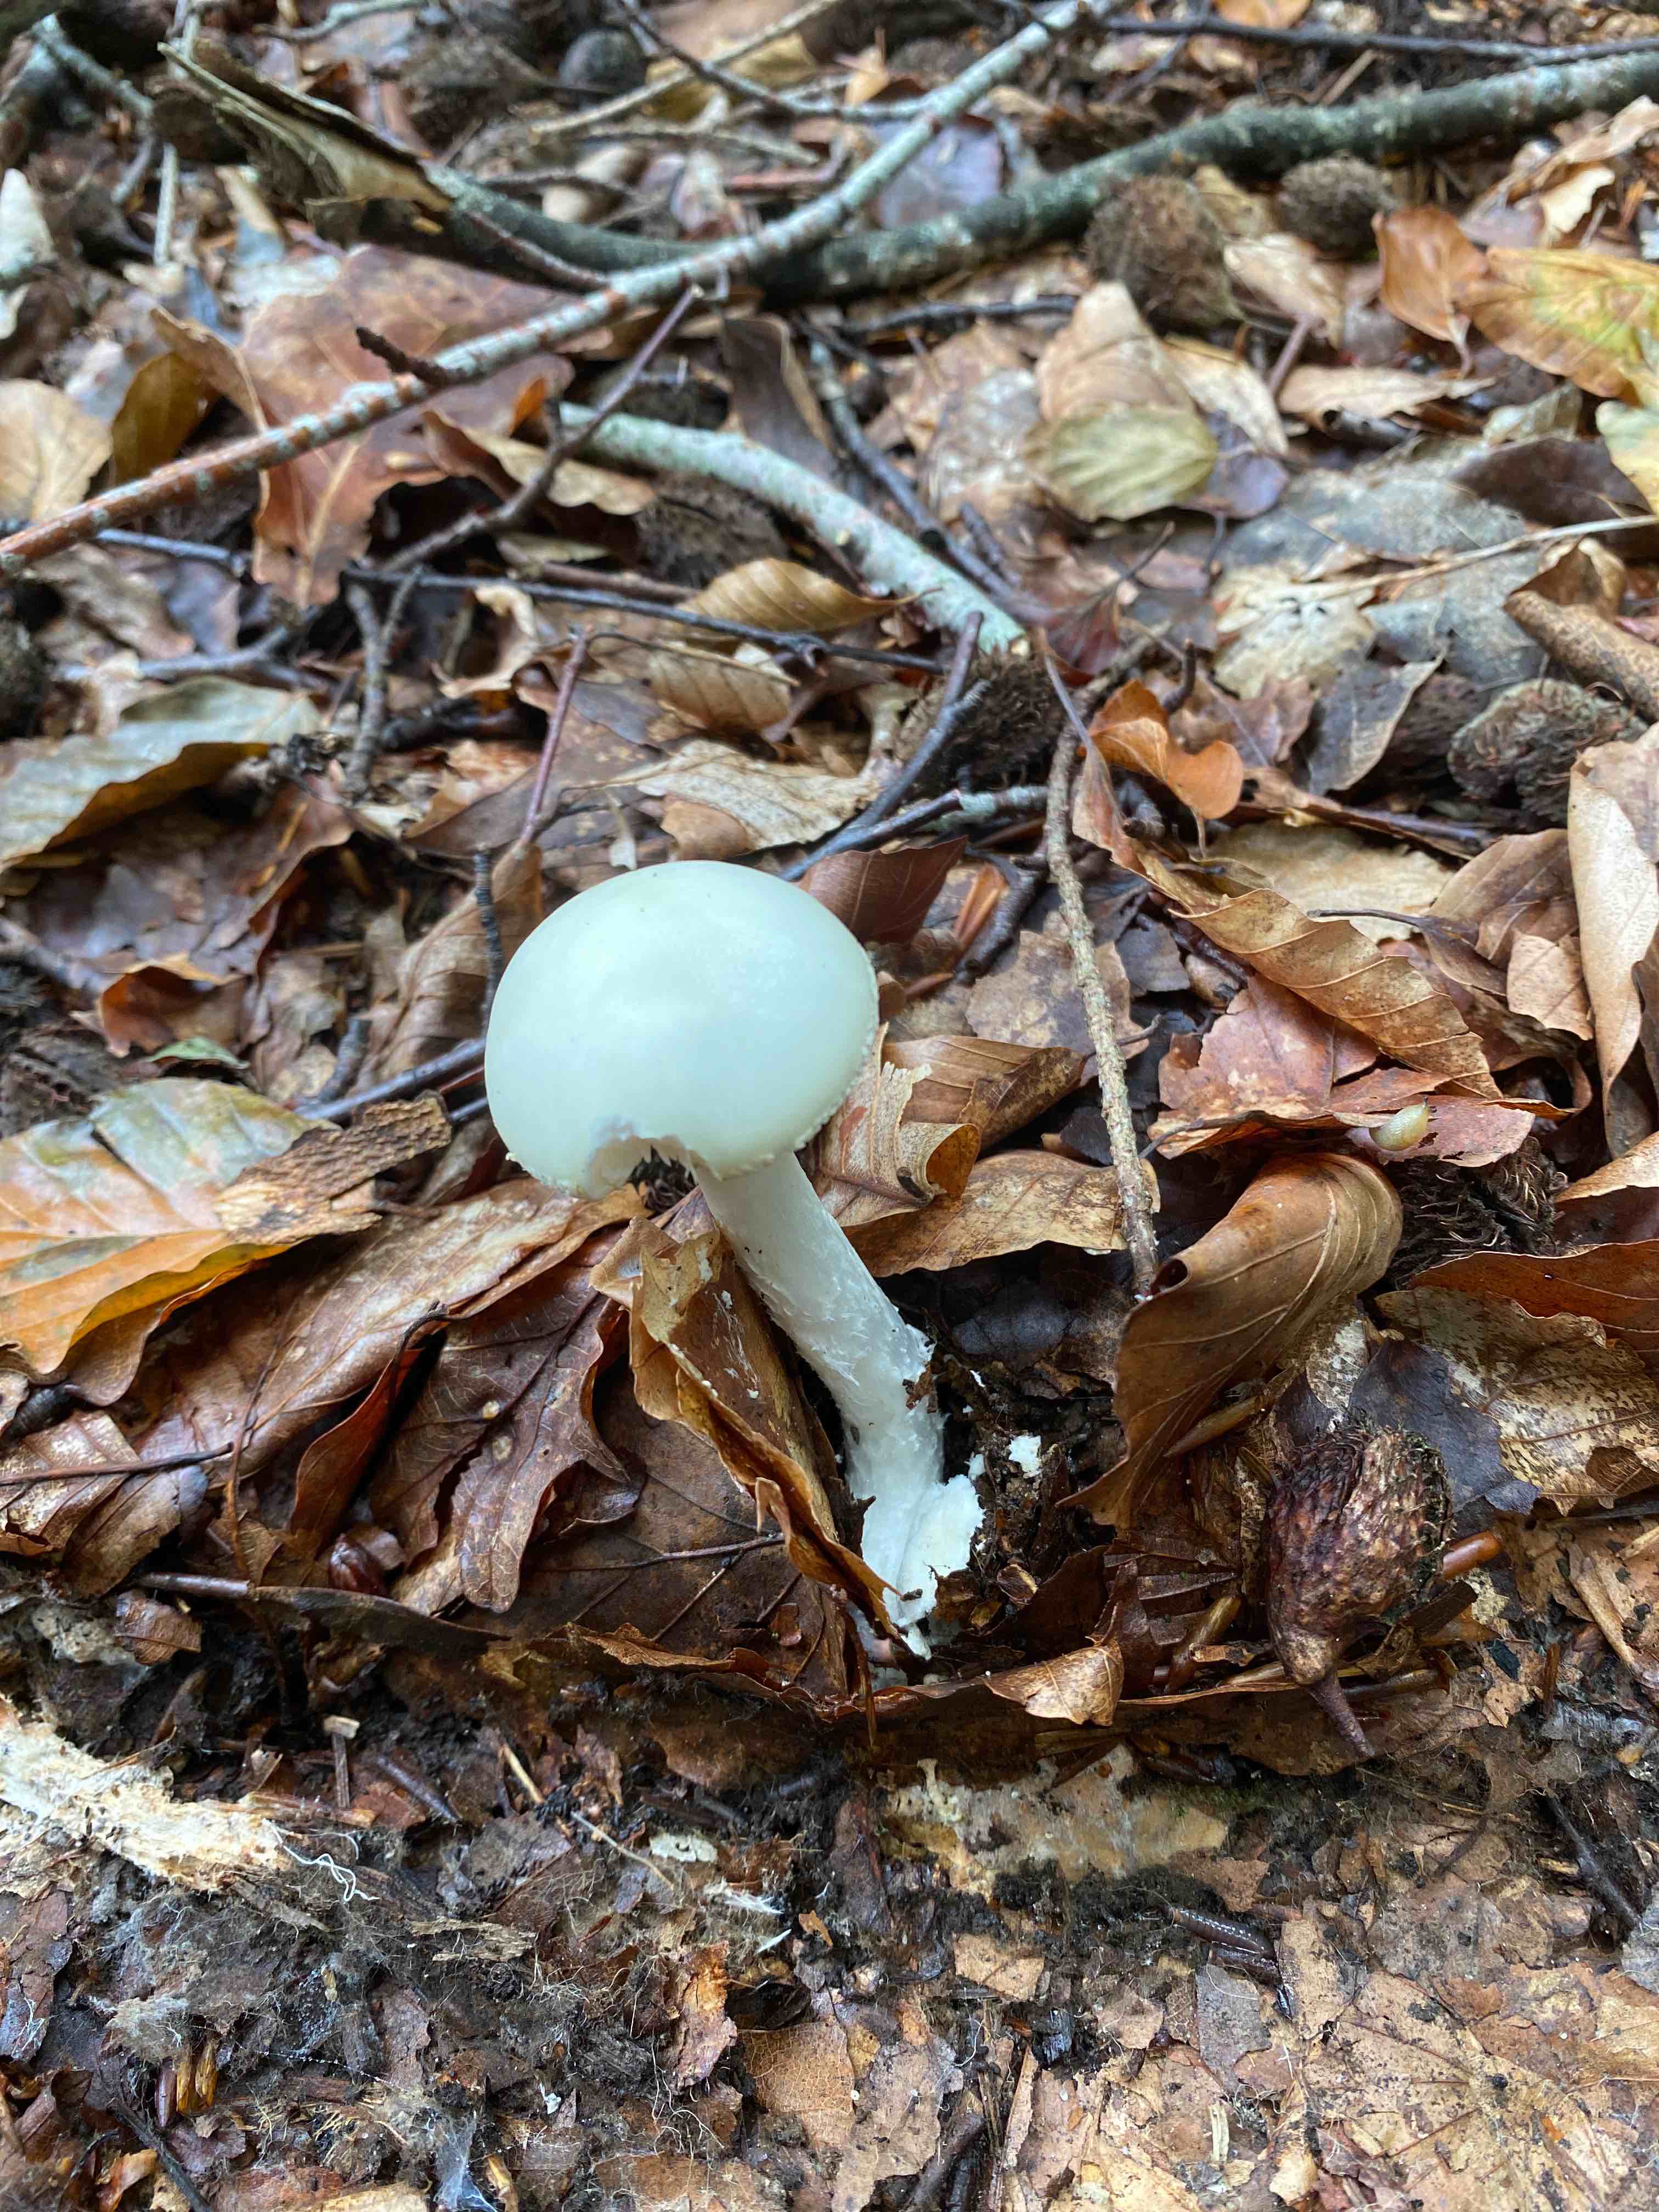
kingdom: Fungi
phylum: Basidiomycota
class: Agaricomycetes
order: Agaricales
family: Amanitaceae
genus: Amanita
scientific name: Amanita
